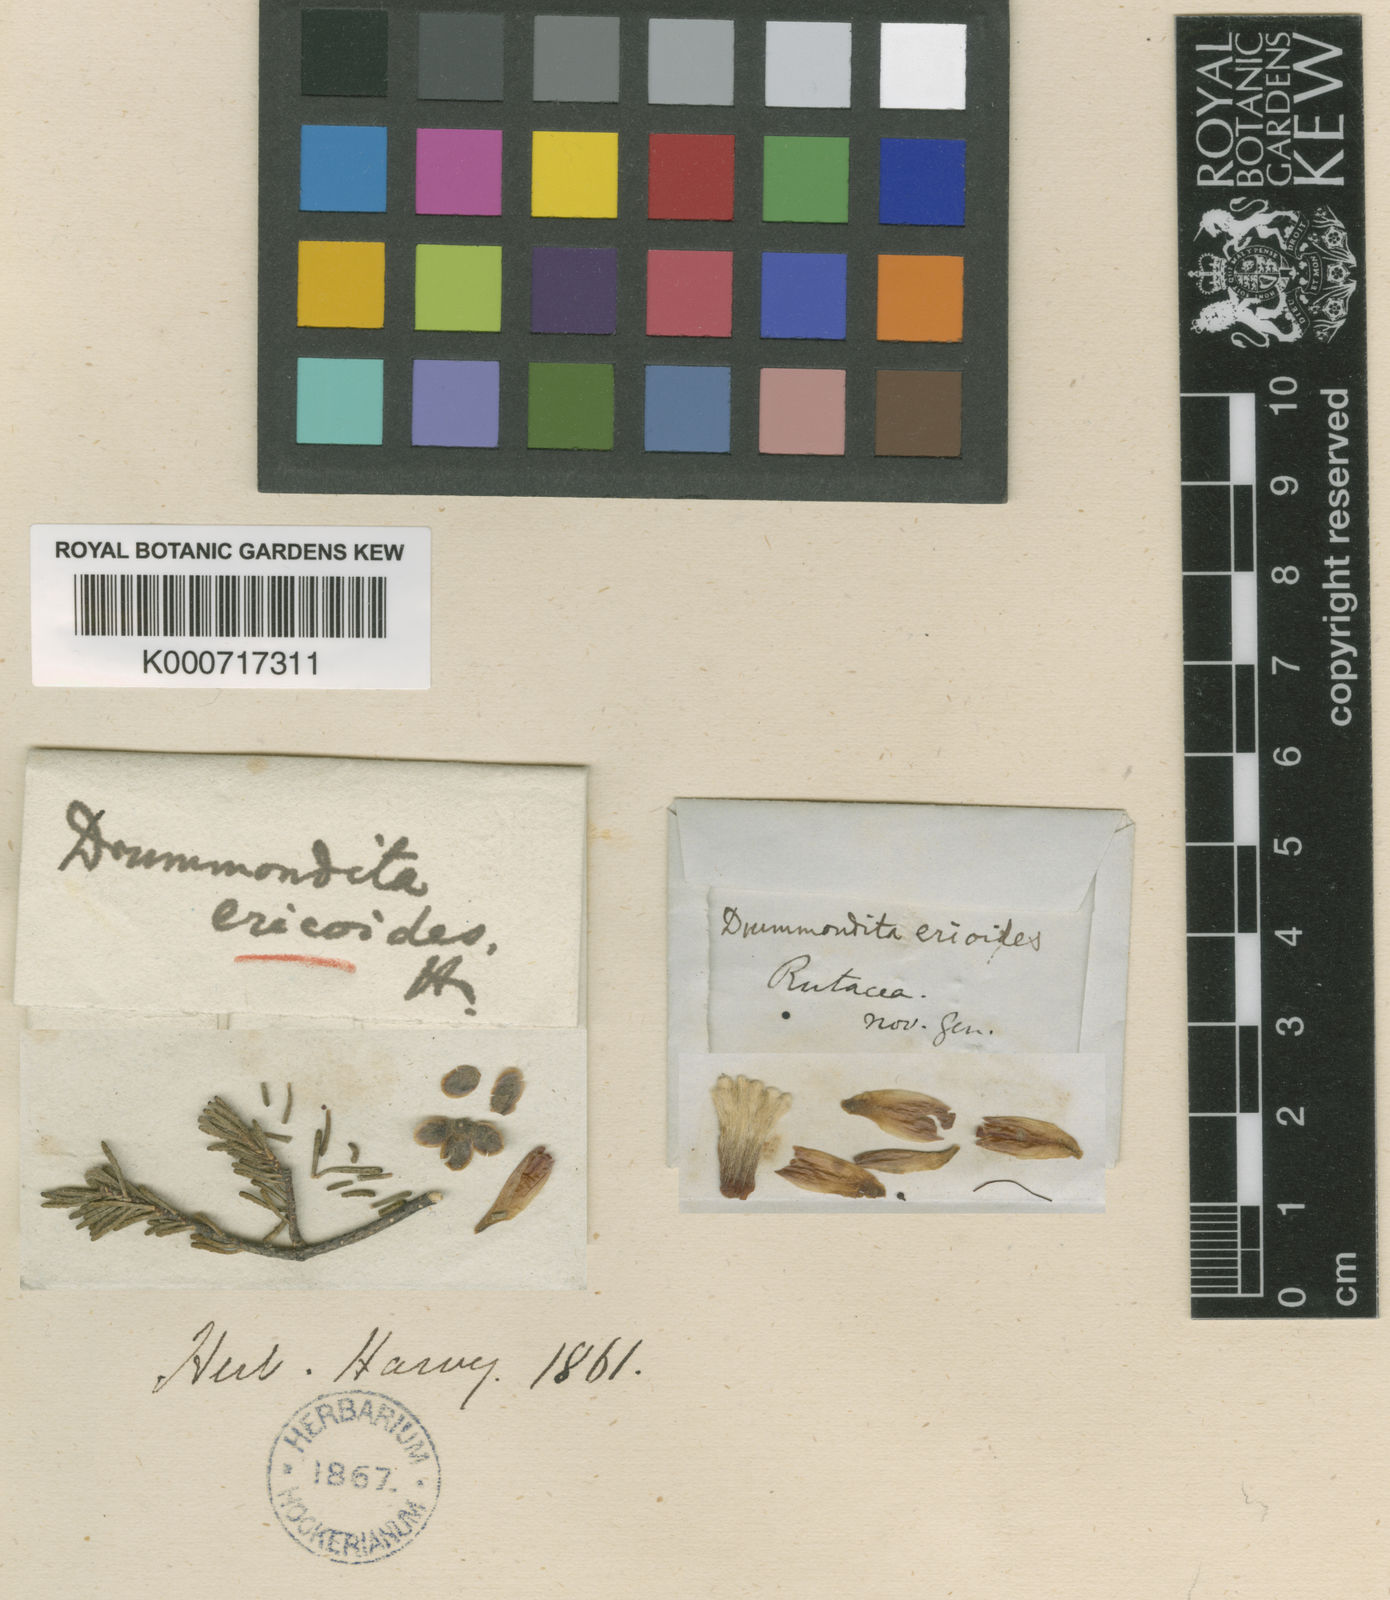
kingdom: Plantae
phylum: Tracheophyta
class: Magnoliopsida
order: Sapindales
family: Rutaceae
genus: Drummondita
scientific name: Drummondita ericoides
